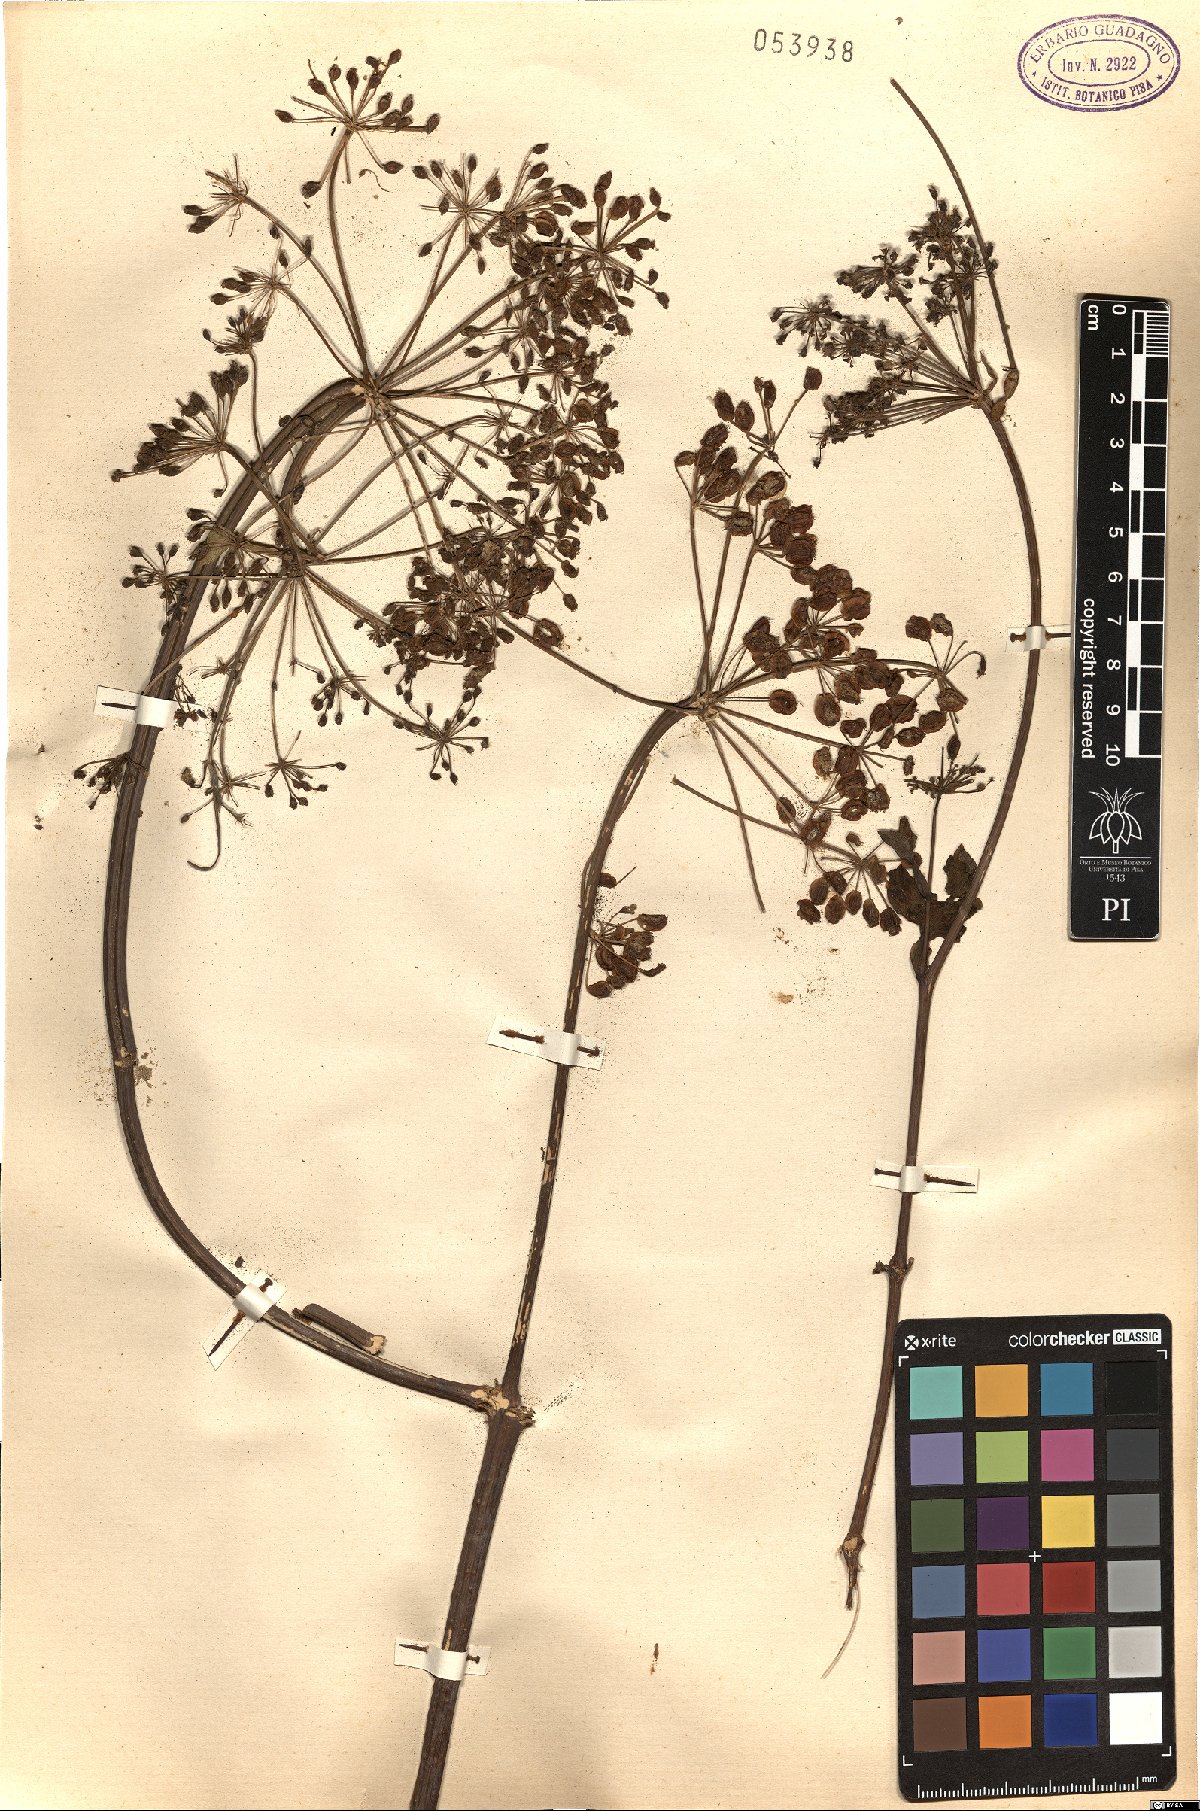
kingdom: Plantae
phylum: Tracheophyta
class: Magnoliopsida
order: Apiales
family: Apiaceae
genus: Angelica
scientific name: Angelica
